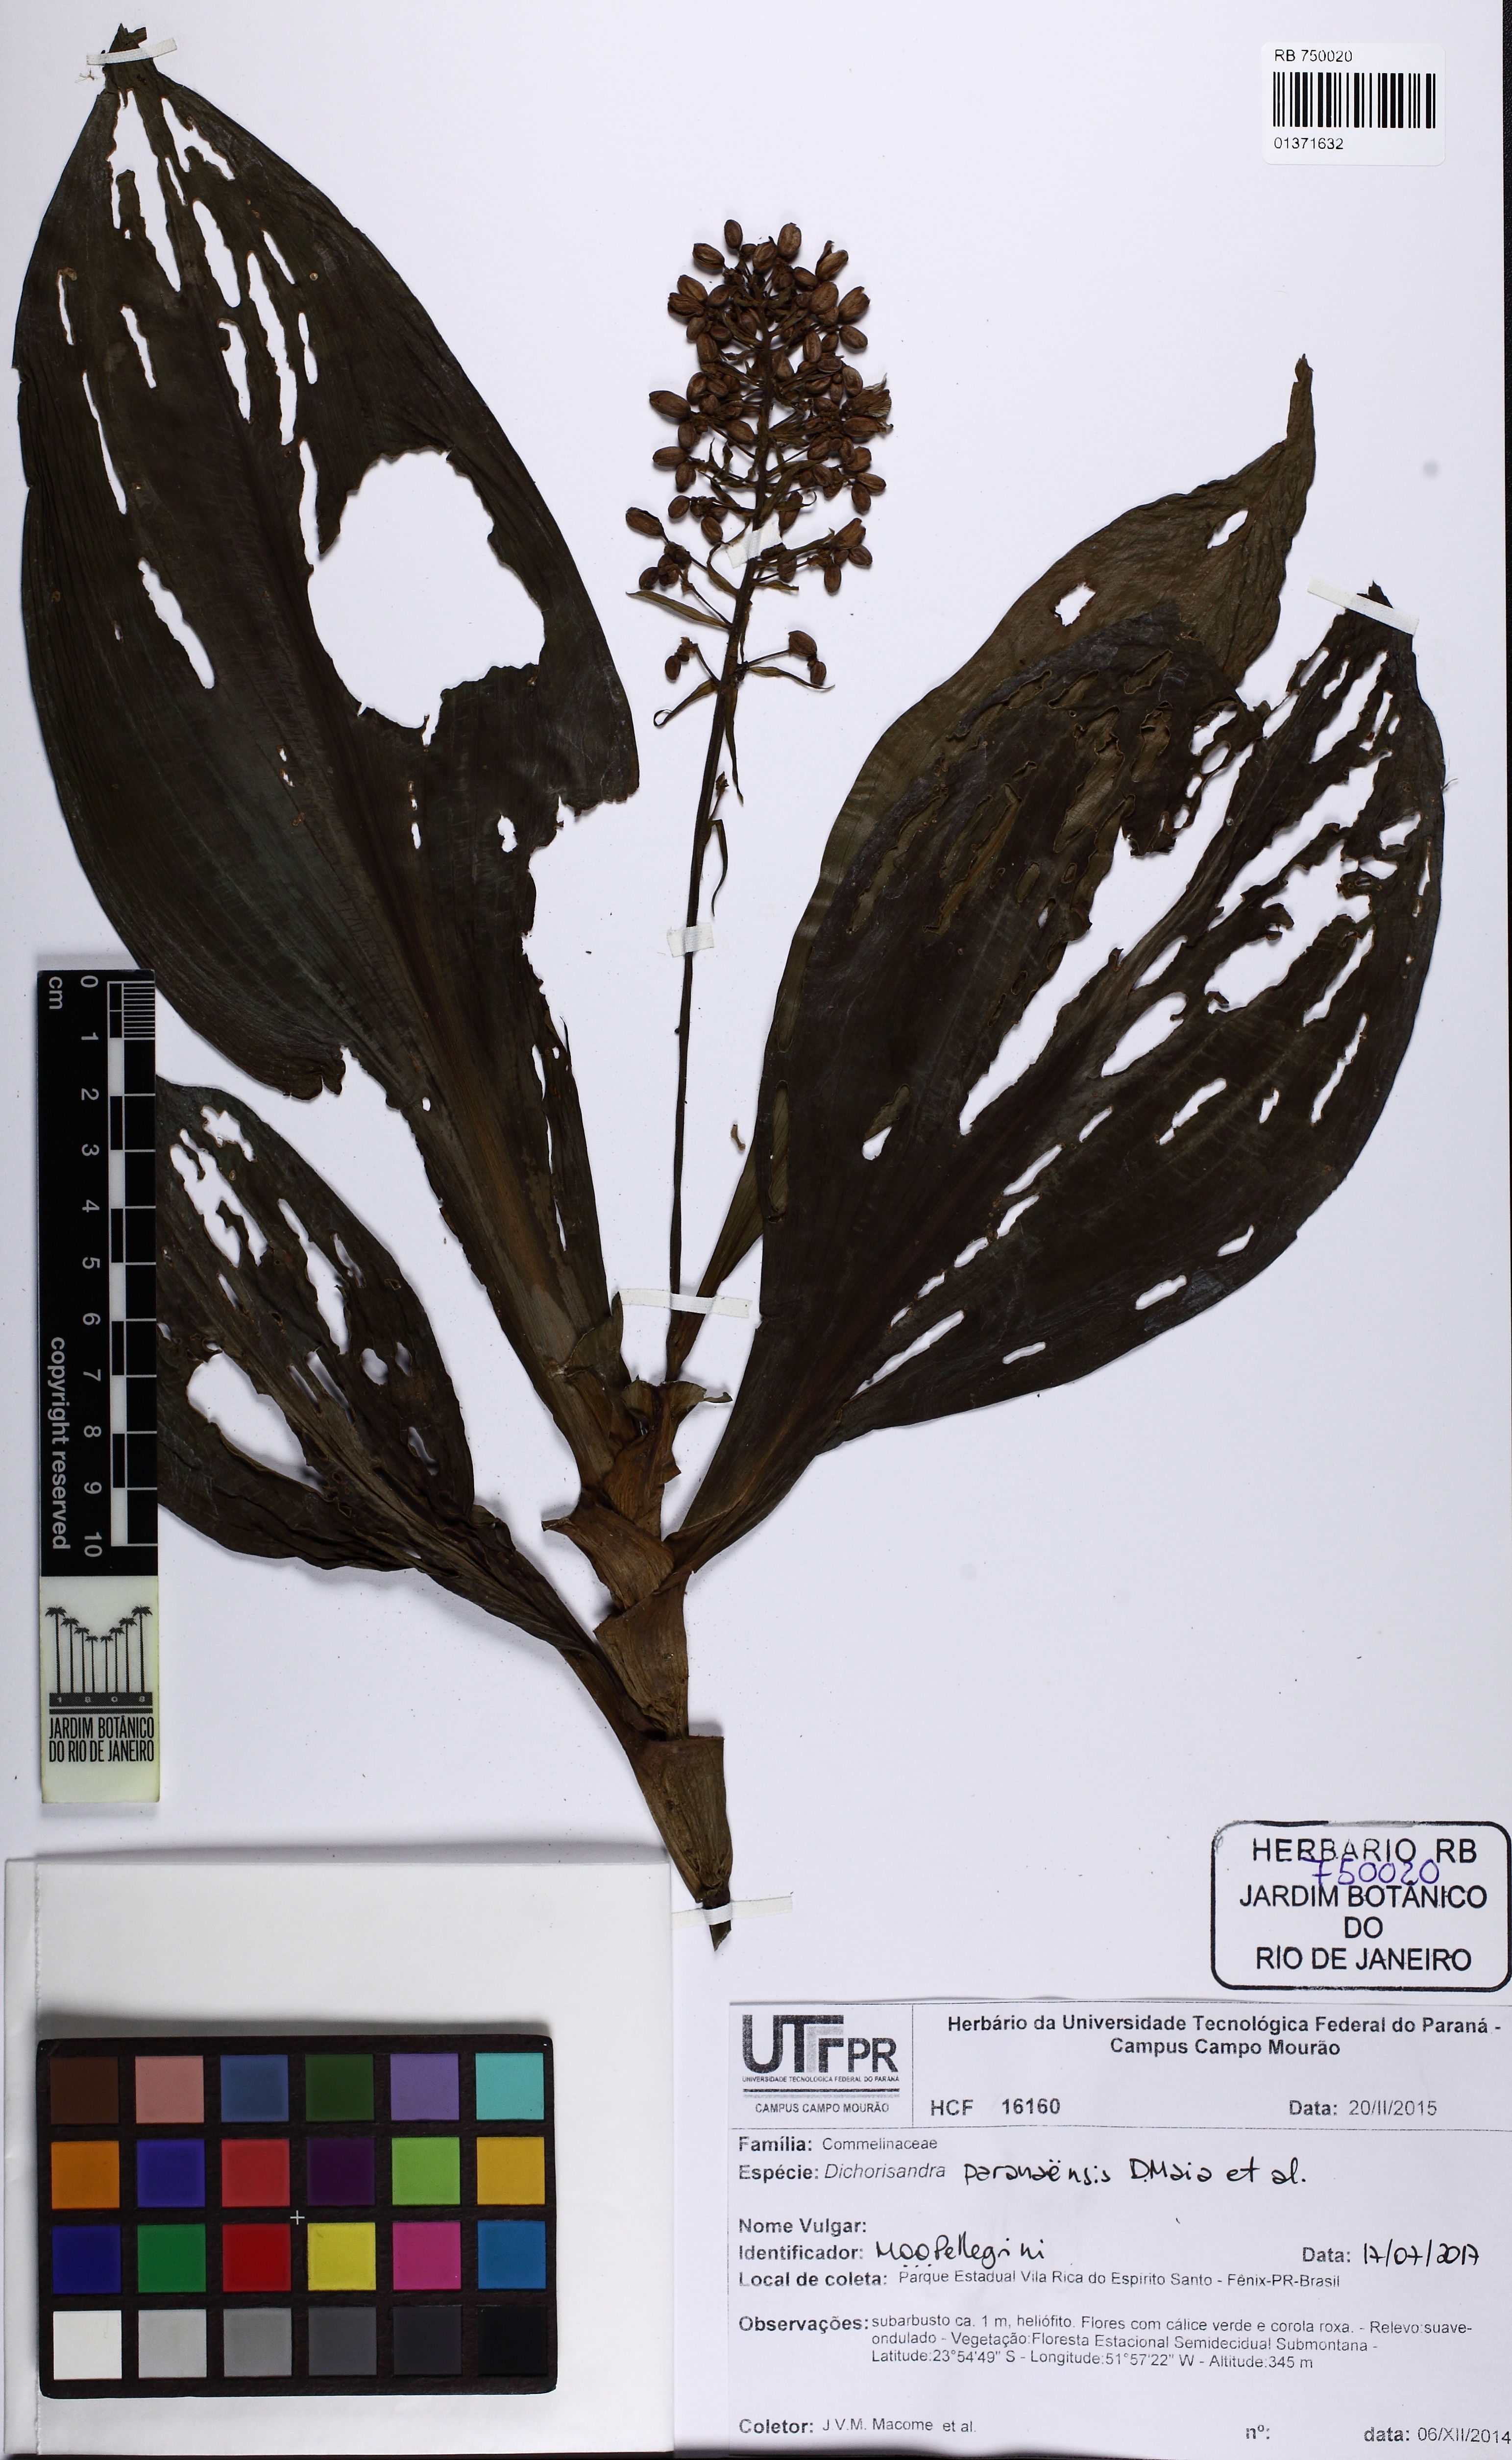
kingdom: Plantae
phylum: Tracheophyta
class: Liliopsida
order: Commelinales
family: Commelinaceae
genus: Dichorisandra
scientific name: Dichorisandra paranaensis
